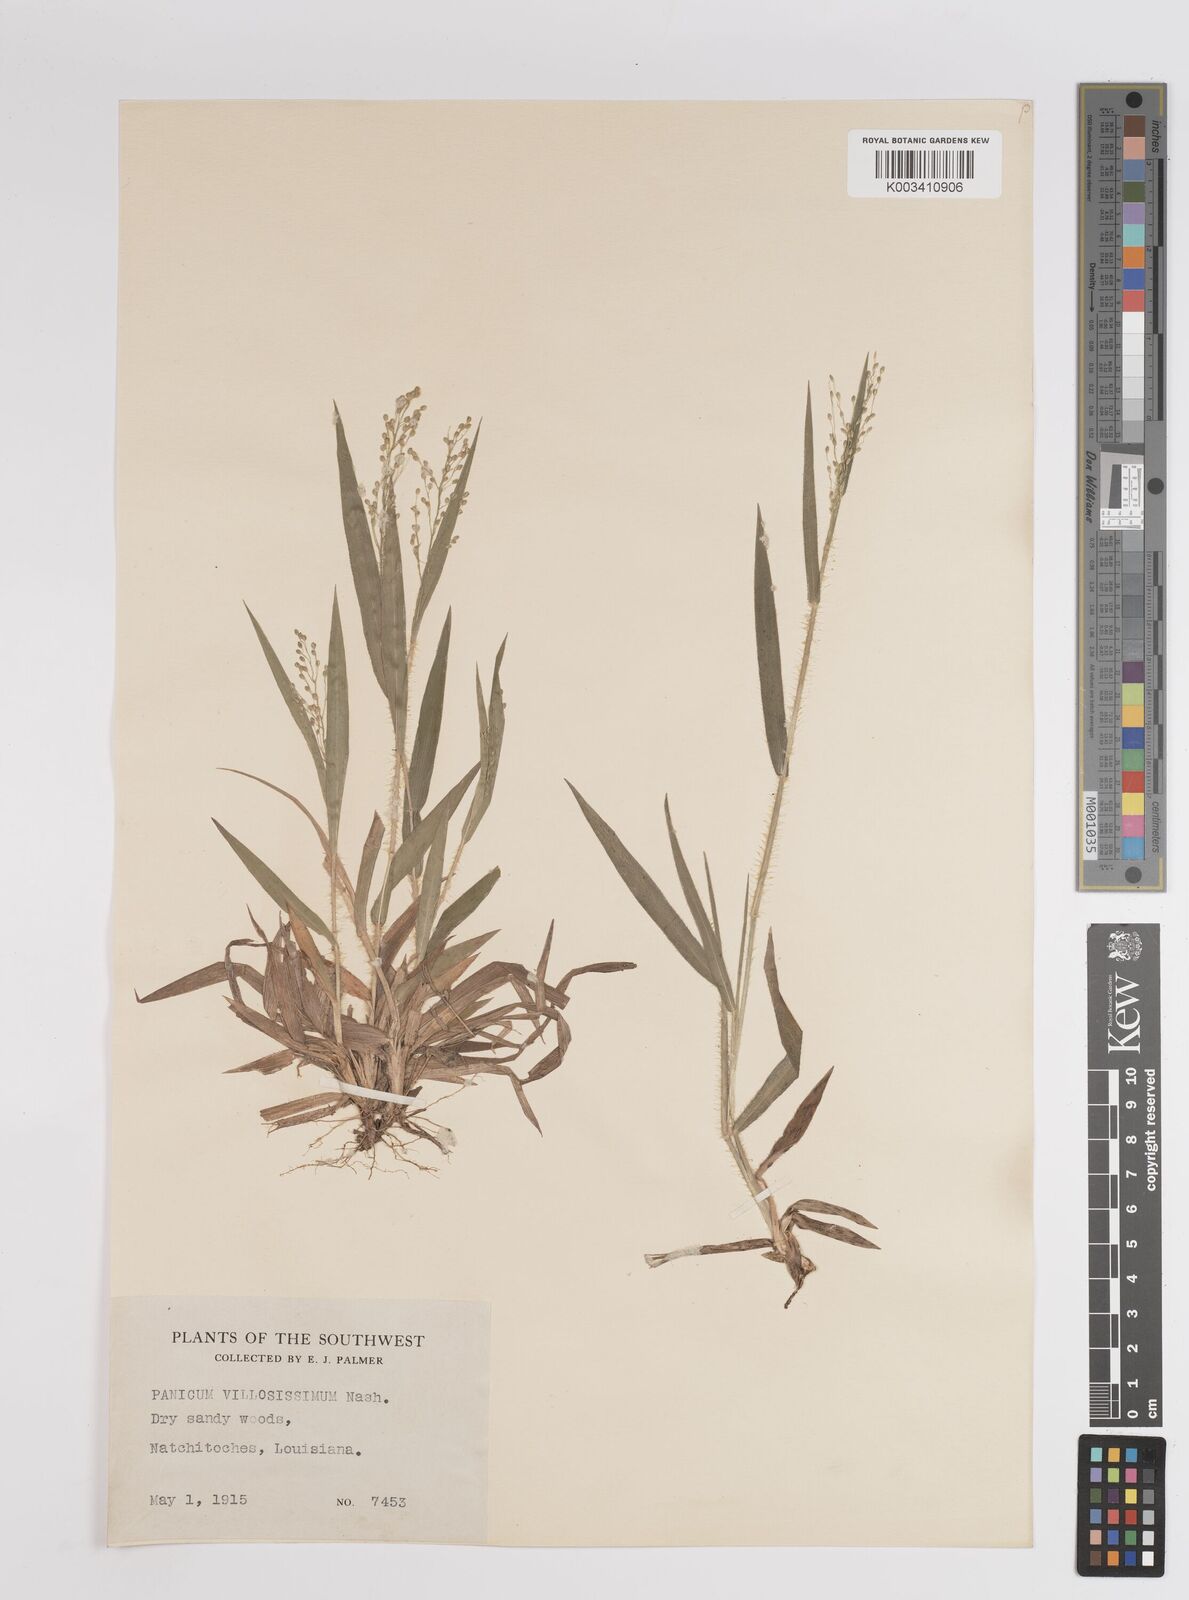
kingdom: Plantae
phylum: Tracheophyta
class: Liliopsida
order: Poales
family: Poaceae
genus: Dichanthelium
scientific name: Dichanthelium villosissimum
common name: White-haired panicgrass
